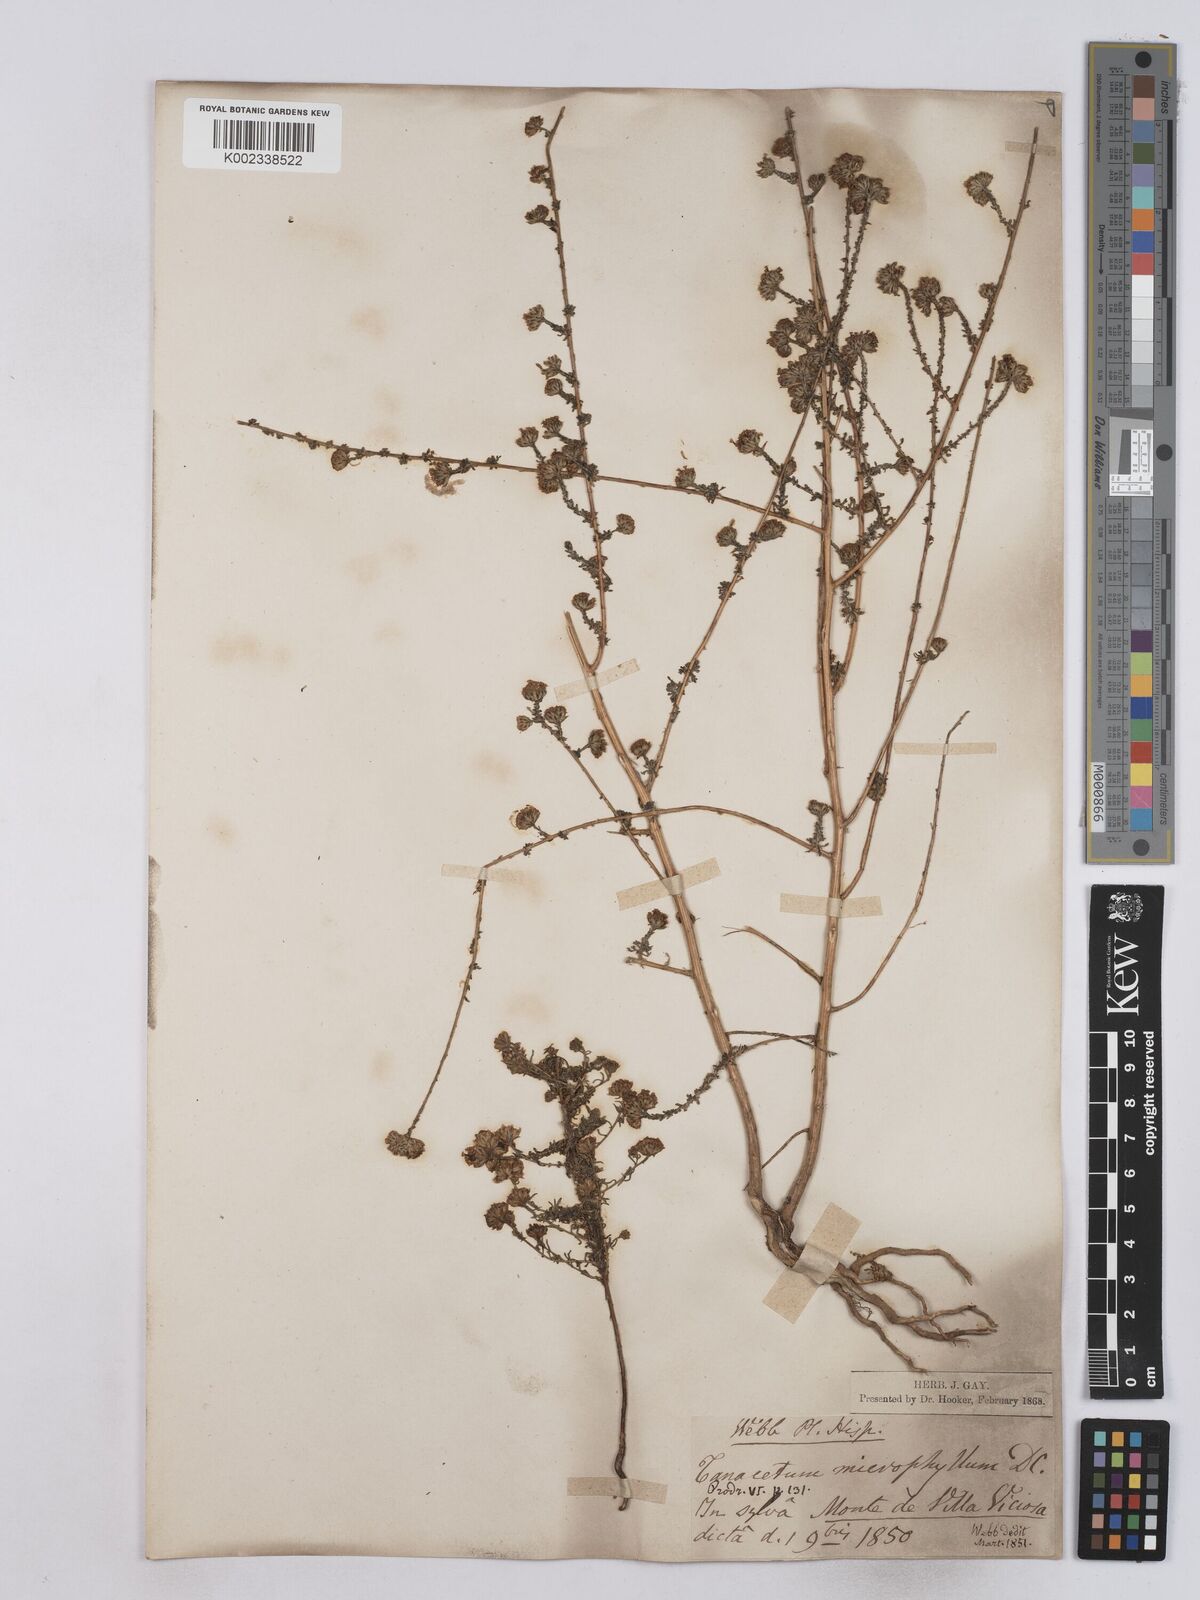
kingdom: Plantae
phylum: Tracheophyta
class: Magnoliopsida
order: Asterales
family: Asteraceae
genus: Vogtia
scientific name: Vogtia microphylla
